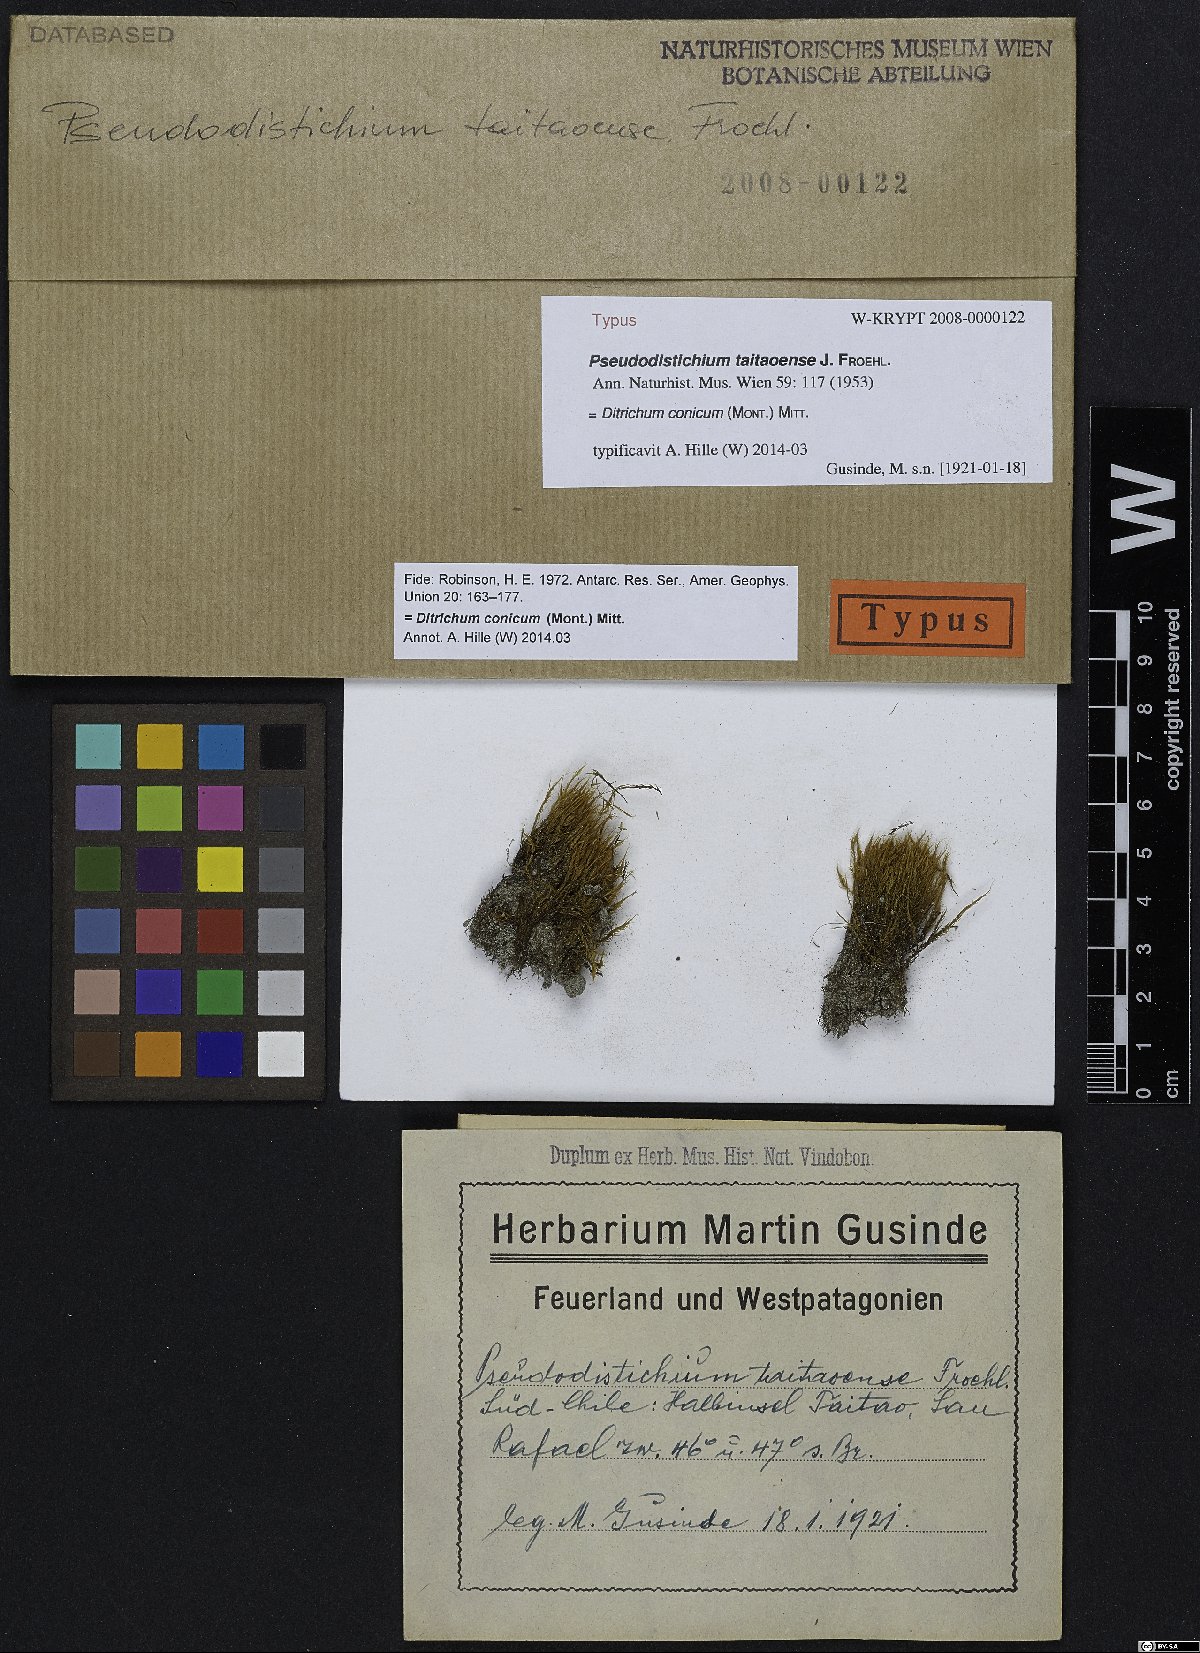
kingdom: Plantae
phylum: Bryophyta
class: Bryopsida
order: Dicranales
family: Ditrichaceae
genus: Ditrichum
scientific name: Ditrichum conicum
